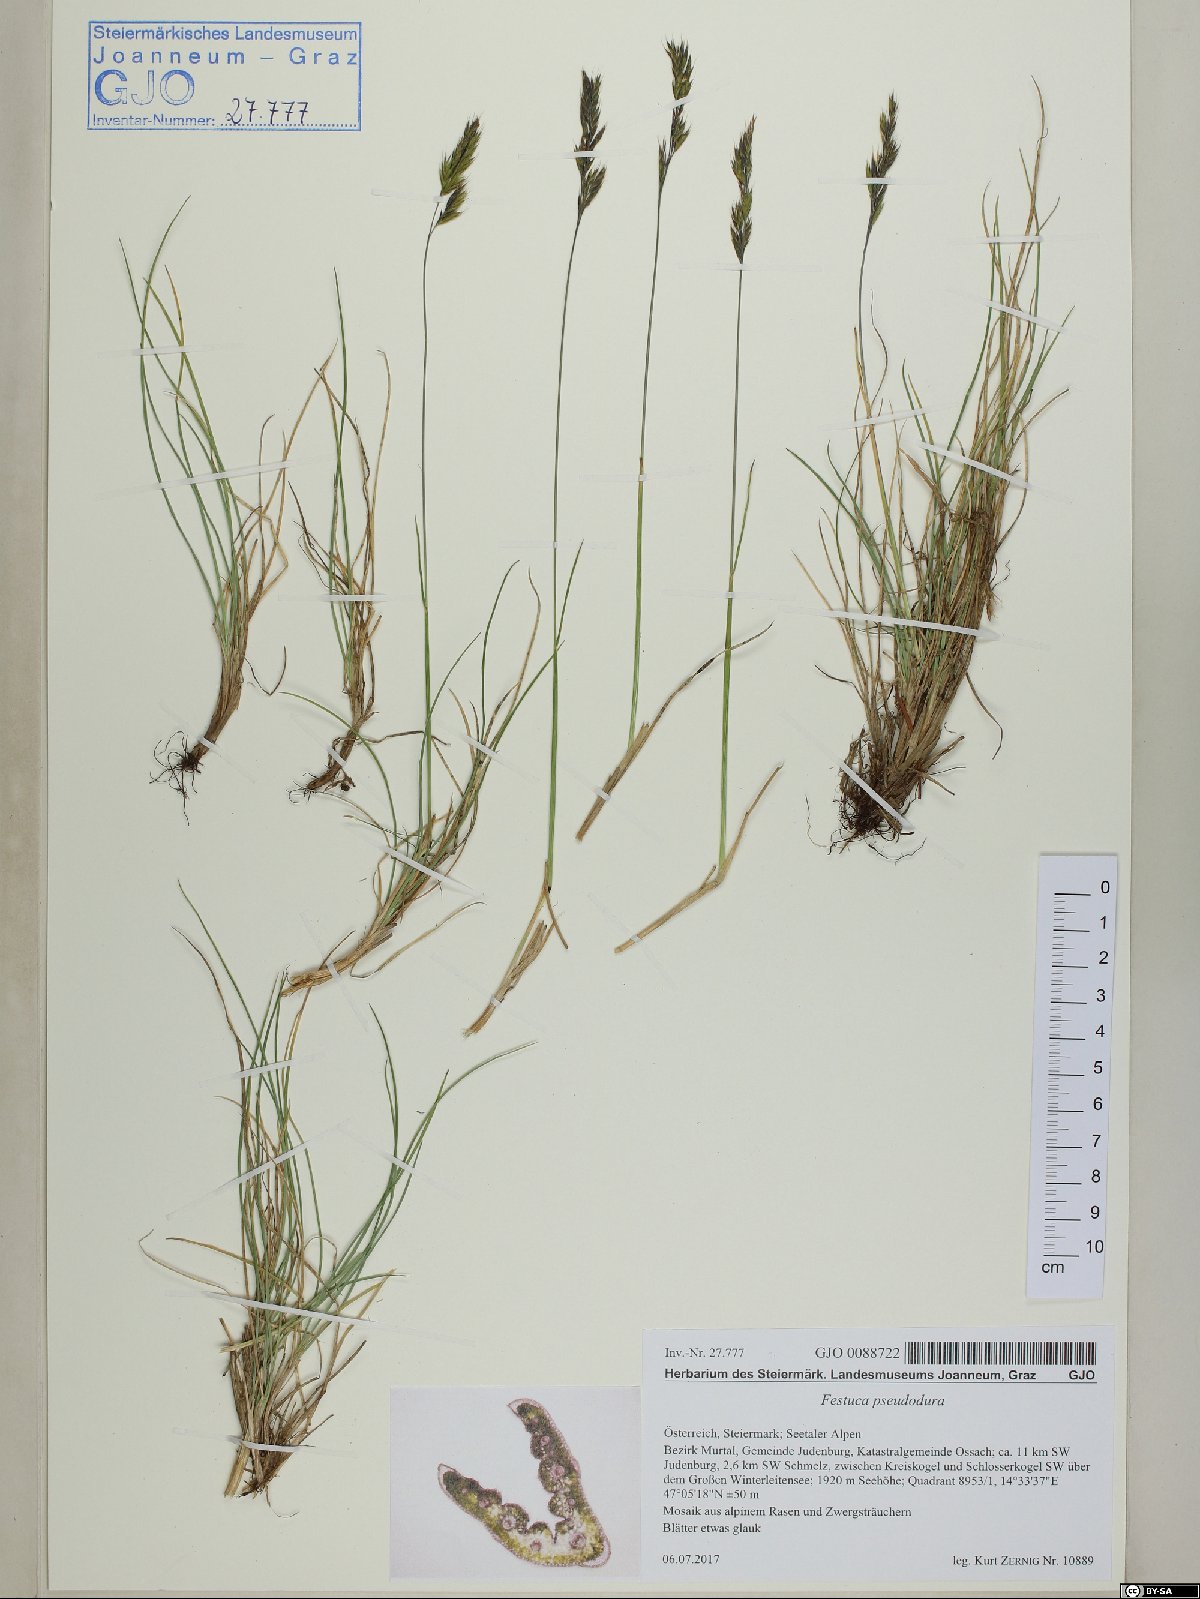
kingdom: Plantae
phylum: Tracheophyta
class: Liliopsida
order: Poales
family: Poaceae
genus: Festuca
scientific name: Festuca pseudodura
